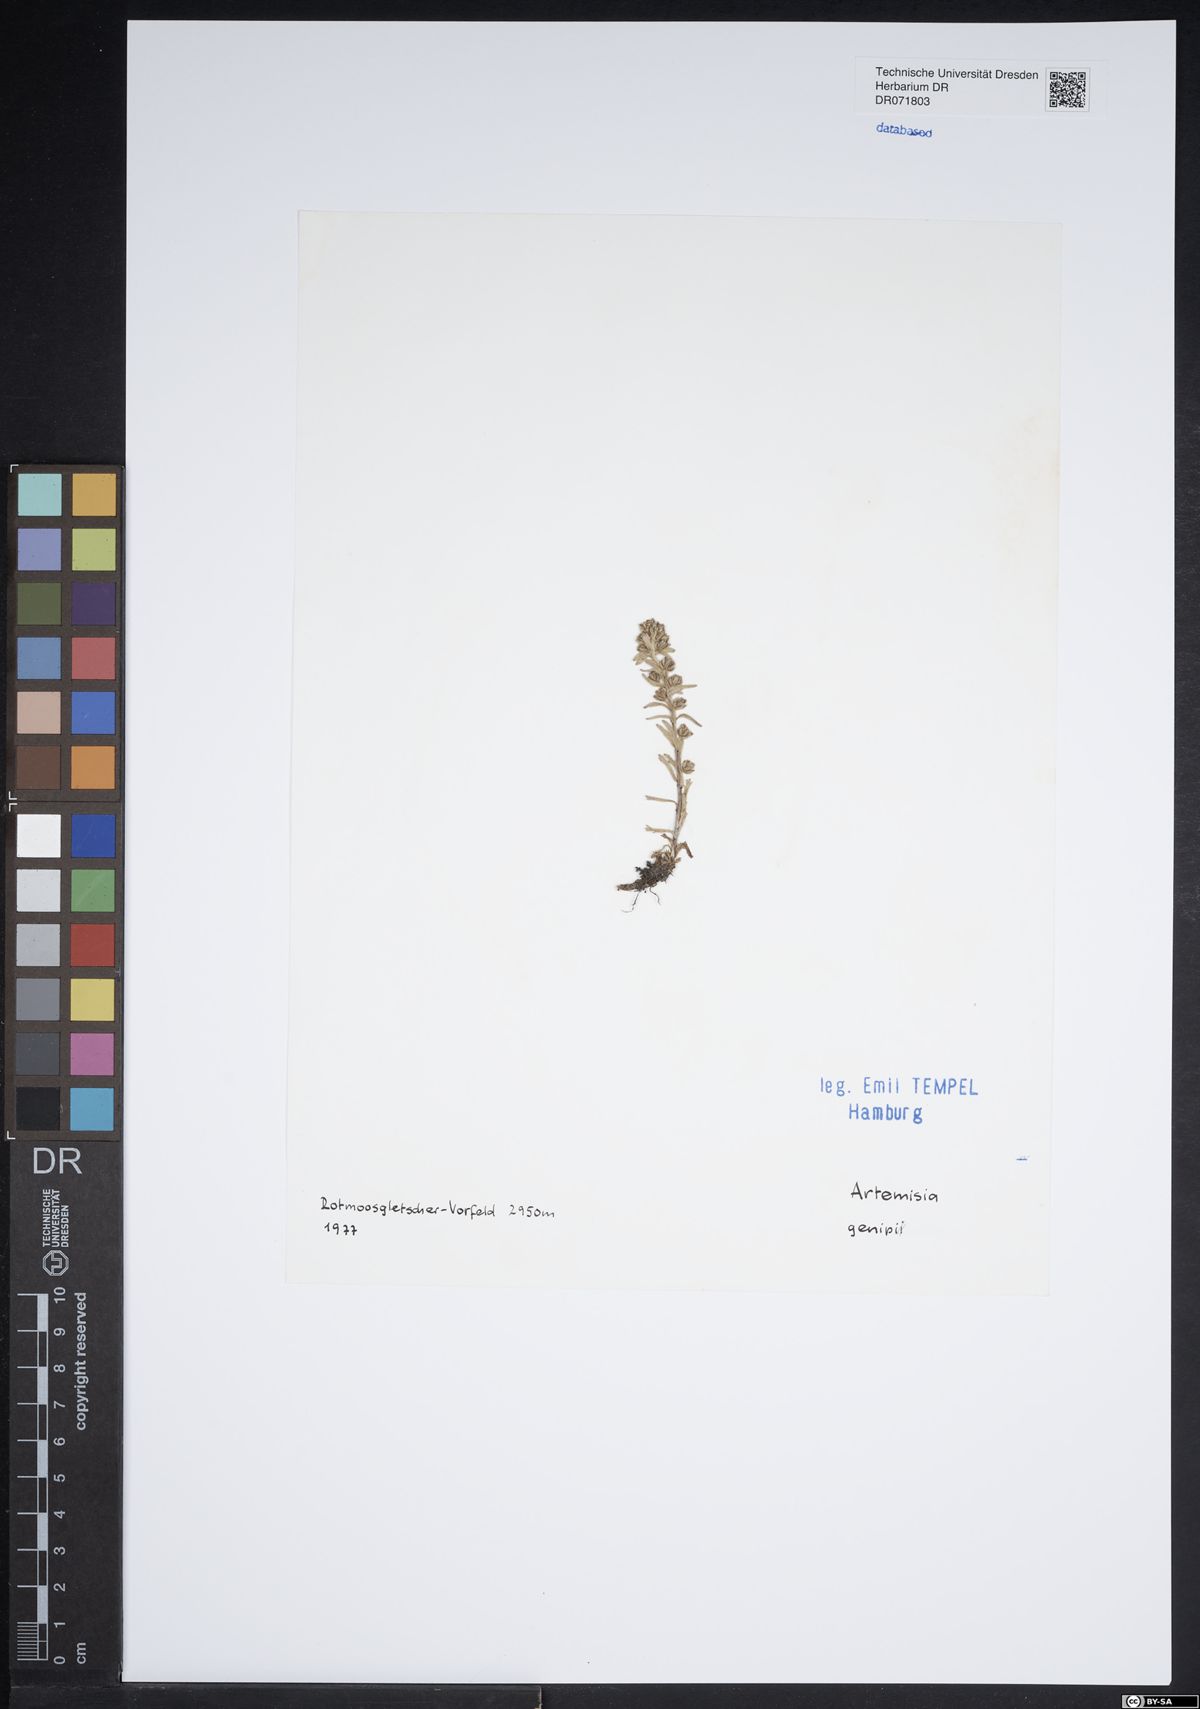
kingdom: Plantae
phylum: Tracheophyta
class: Magnoliopsida
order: Asterales
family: Asteraceae
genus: Artemisia
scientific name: Artemisia genipi
